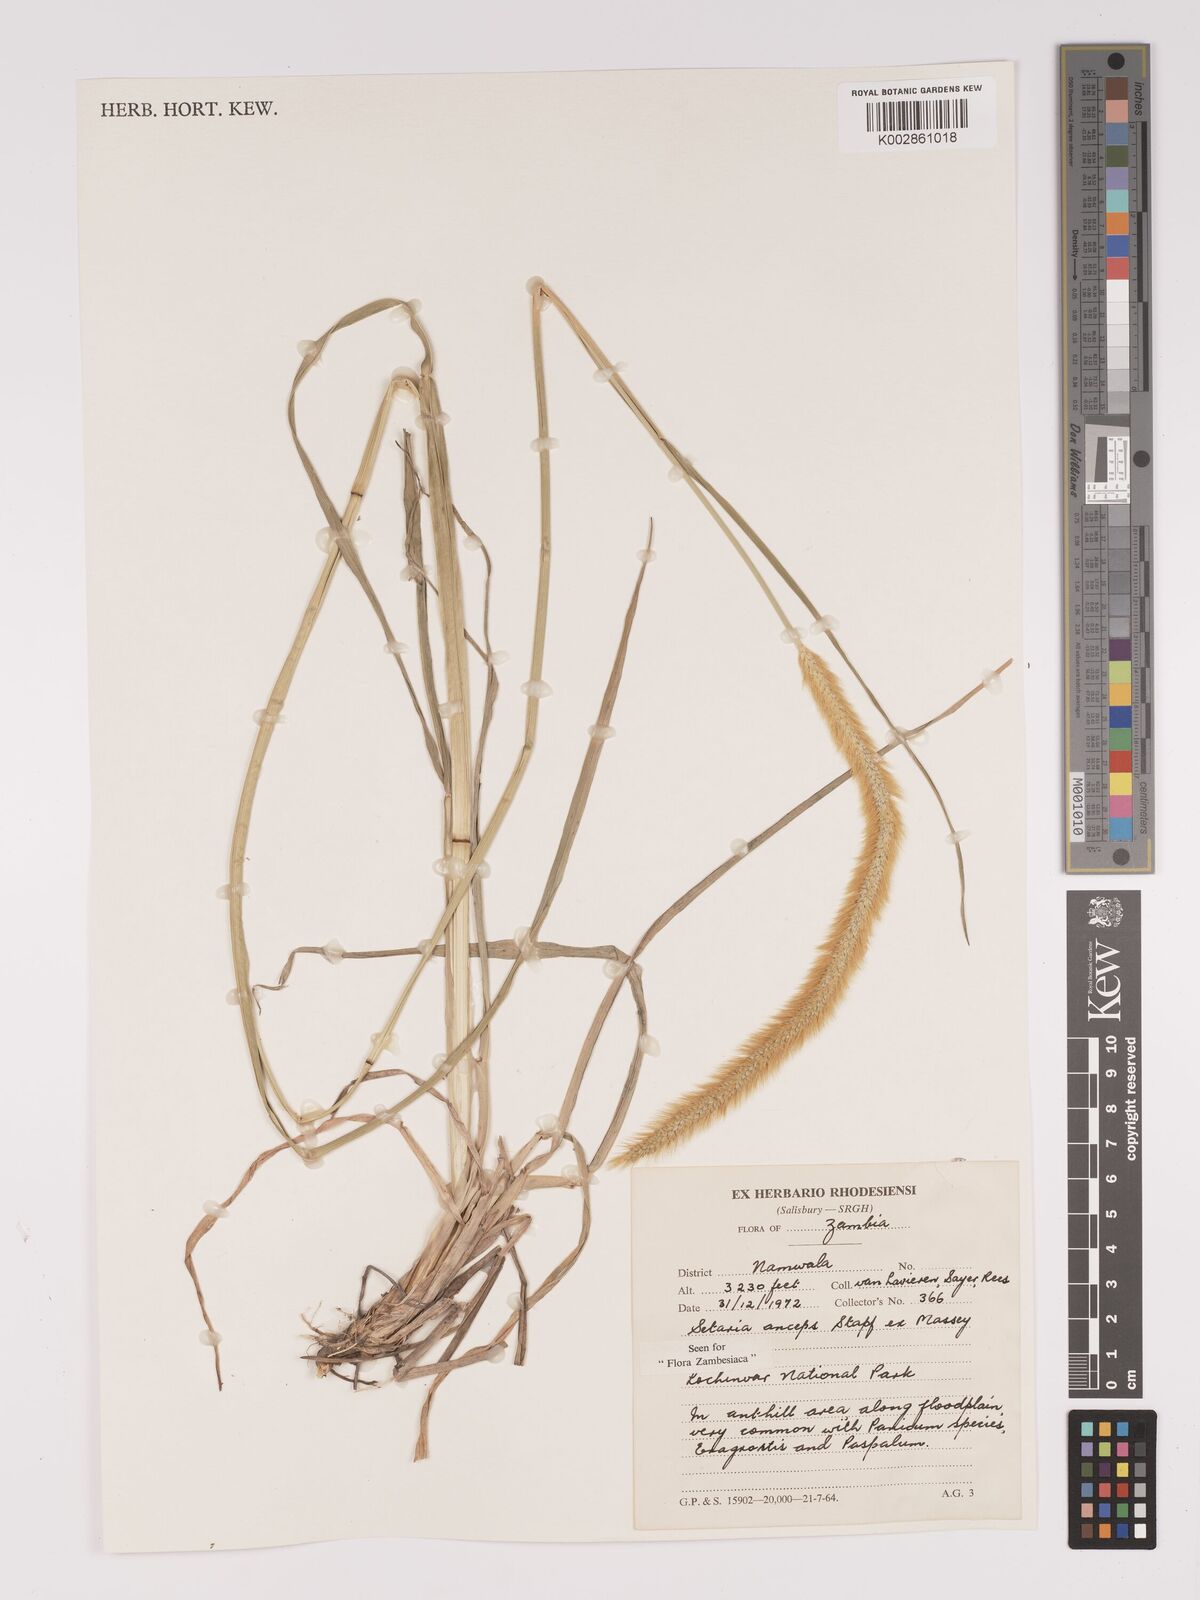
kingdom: Plantae
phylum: Tracheophyta
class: Liliopsida
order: Poales
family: Poaceae
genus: Setaria
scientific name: Setaria sphacelata
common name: African bristlegrass
